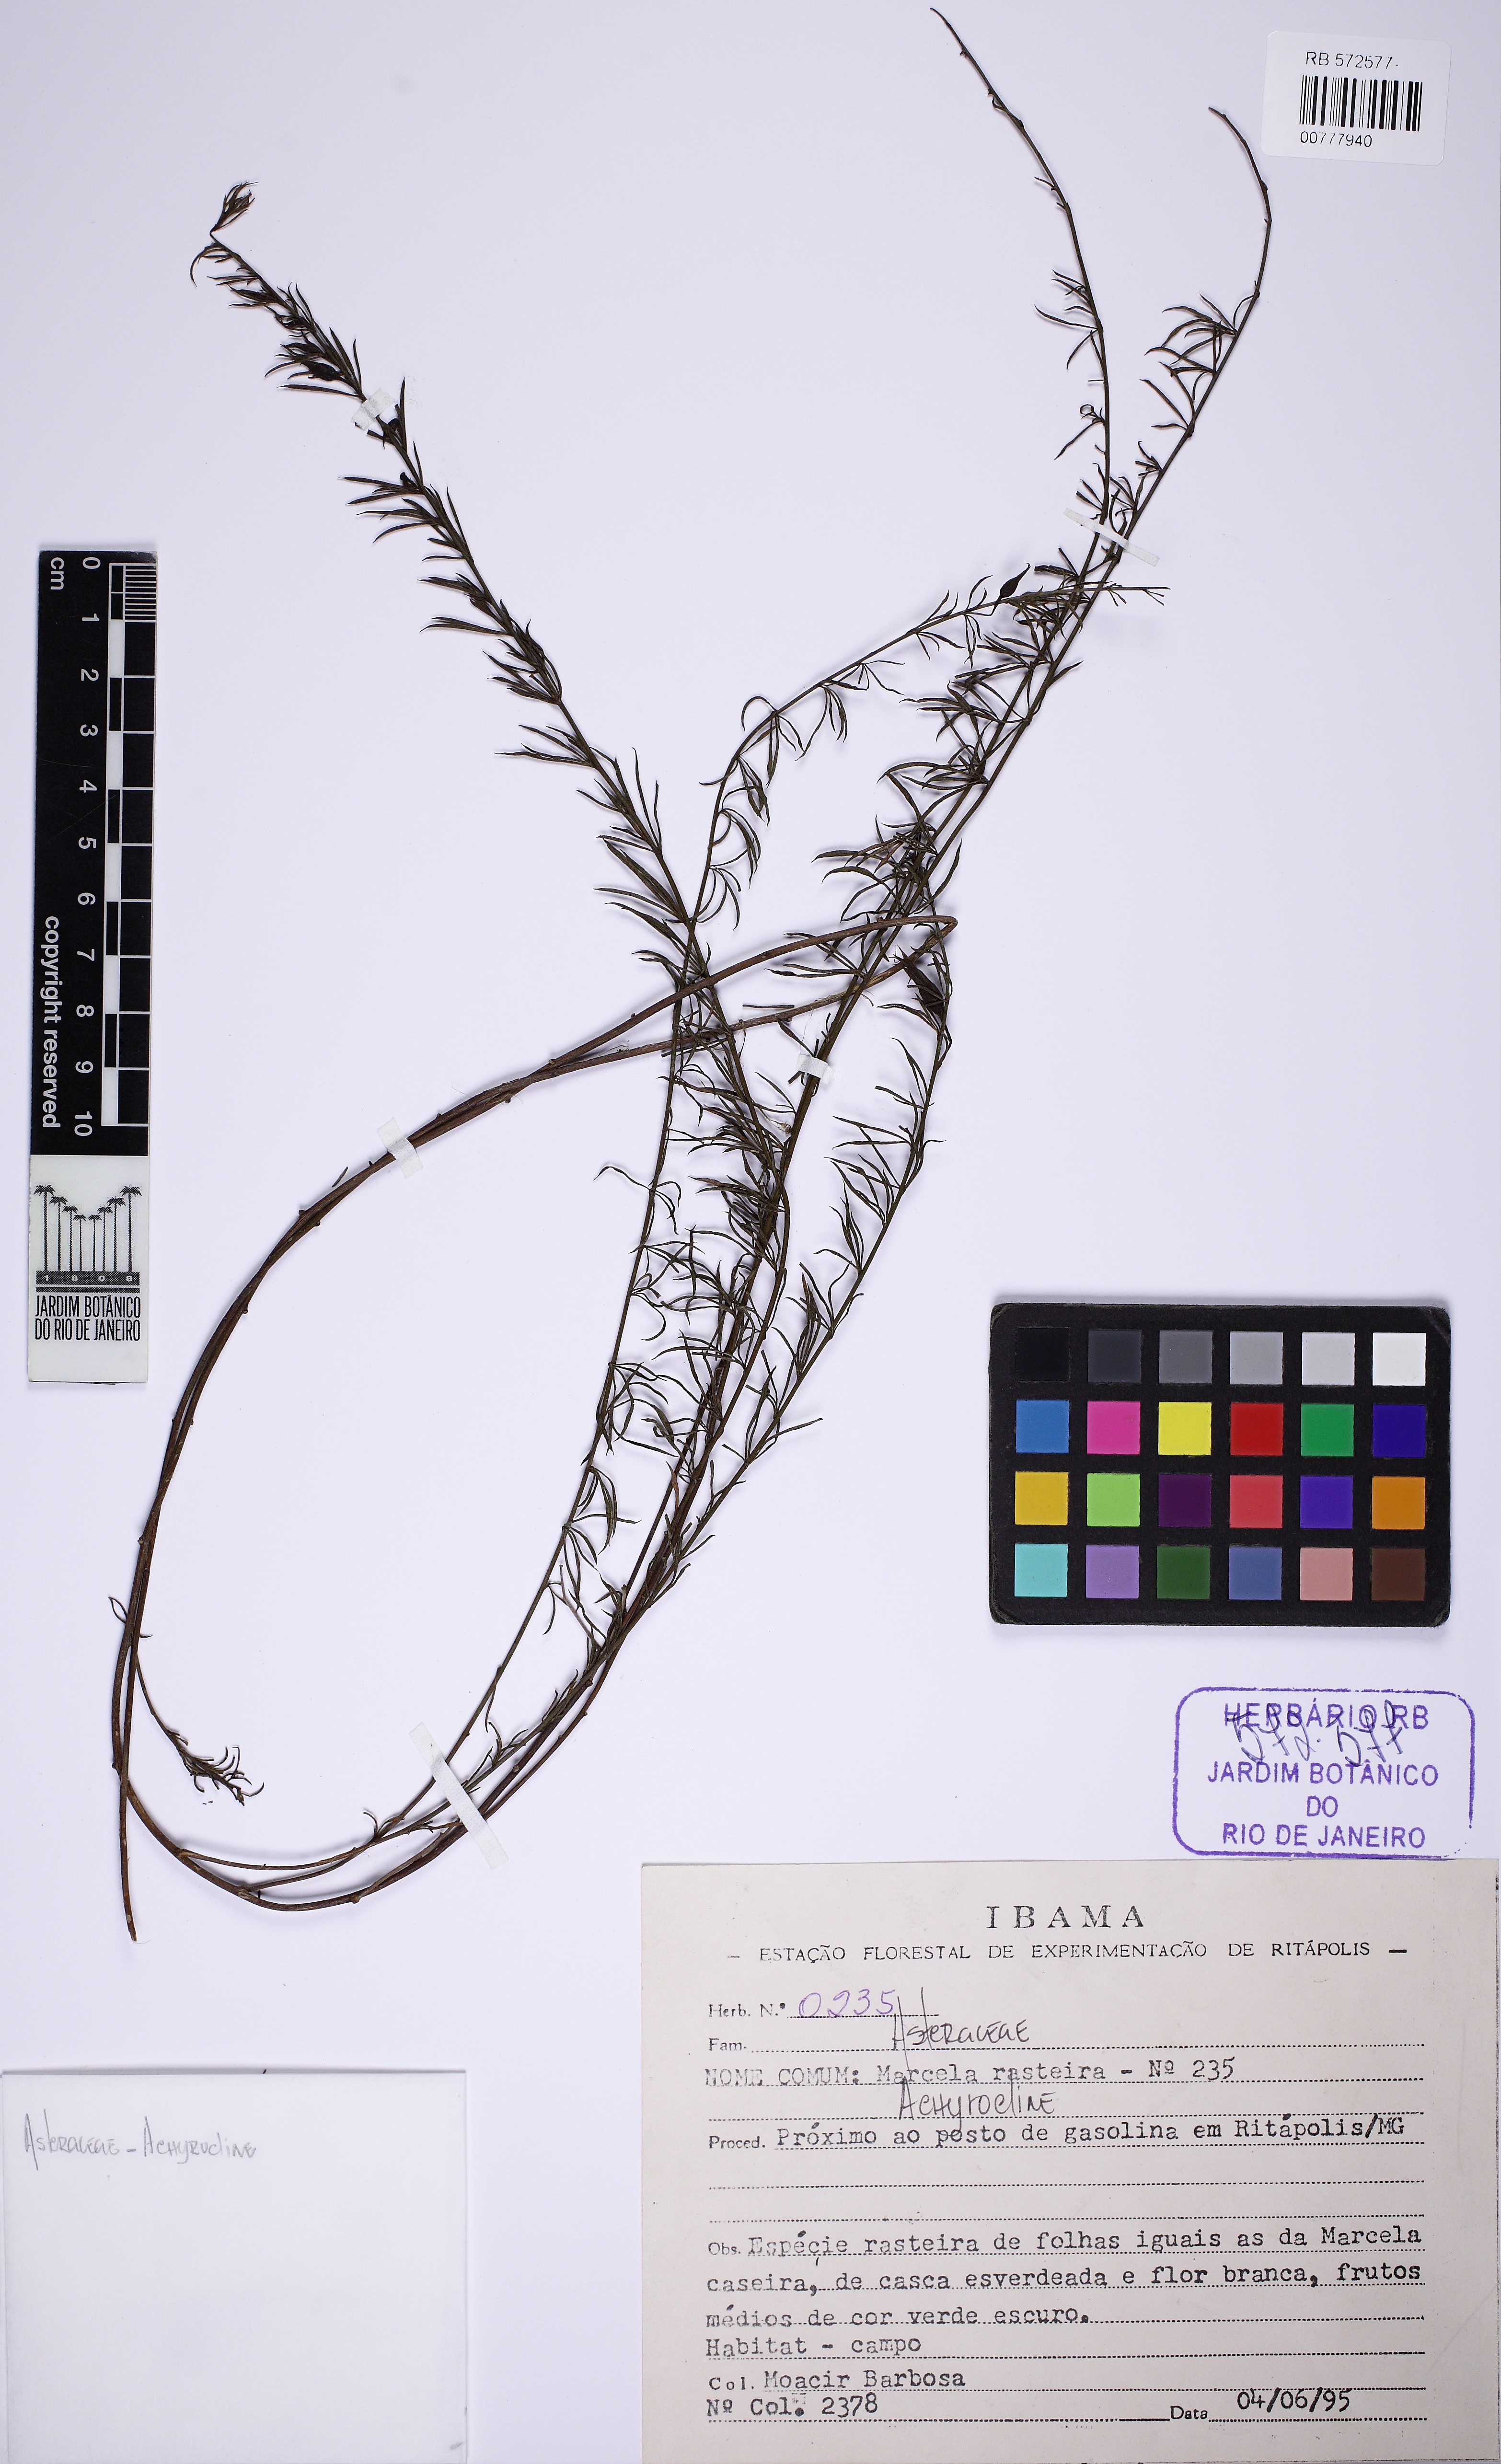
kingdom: Plantae
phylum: Tracheophyta
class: Magnoliopsida
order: Asterales
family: Asteraceae
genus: Achyrocline
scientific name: Achyrocline
